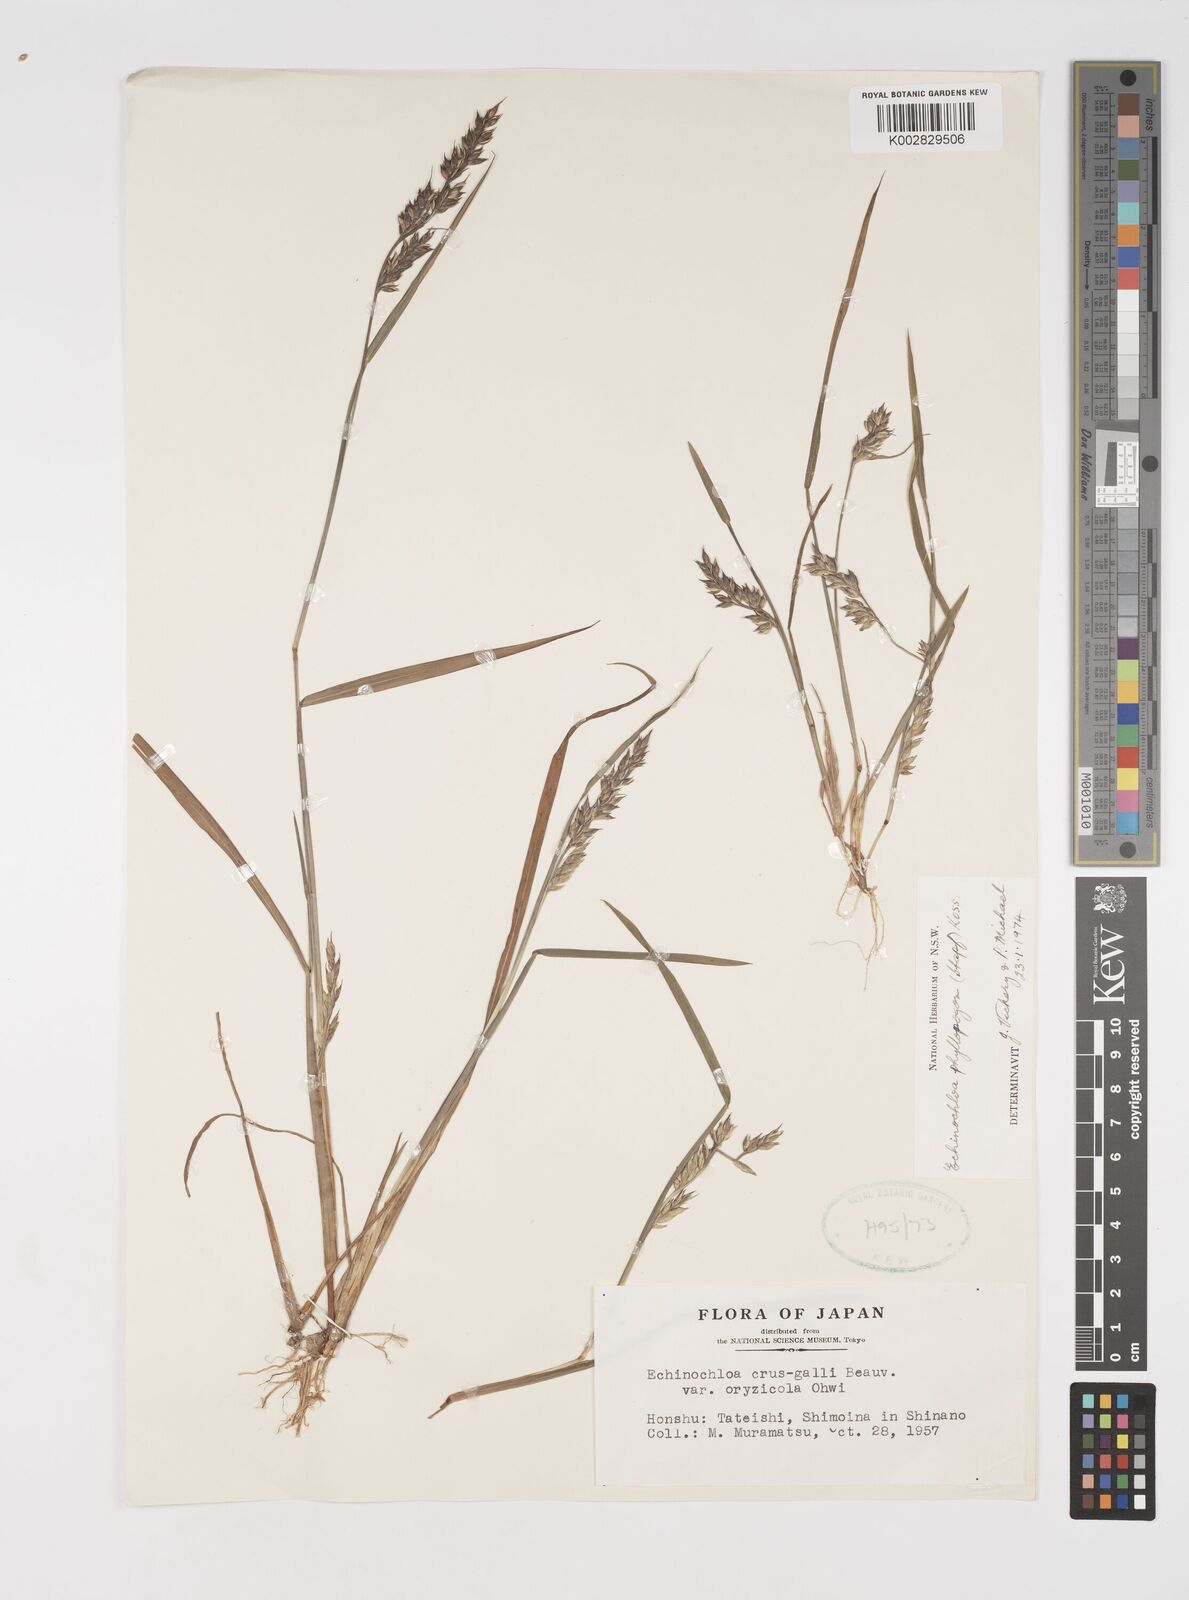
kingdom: Plantae
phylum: Tracheophyta
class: Liliopsida
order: Poales
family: Poaceae
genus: Echinochloa
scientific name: Echinochloa oryzoides
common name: Early water grass
